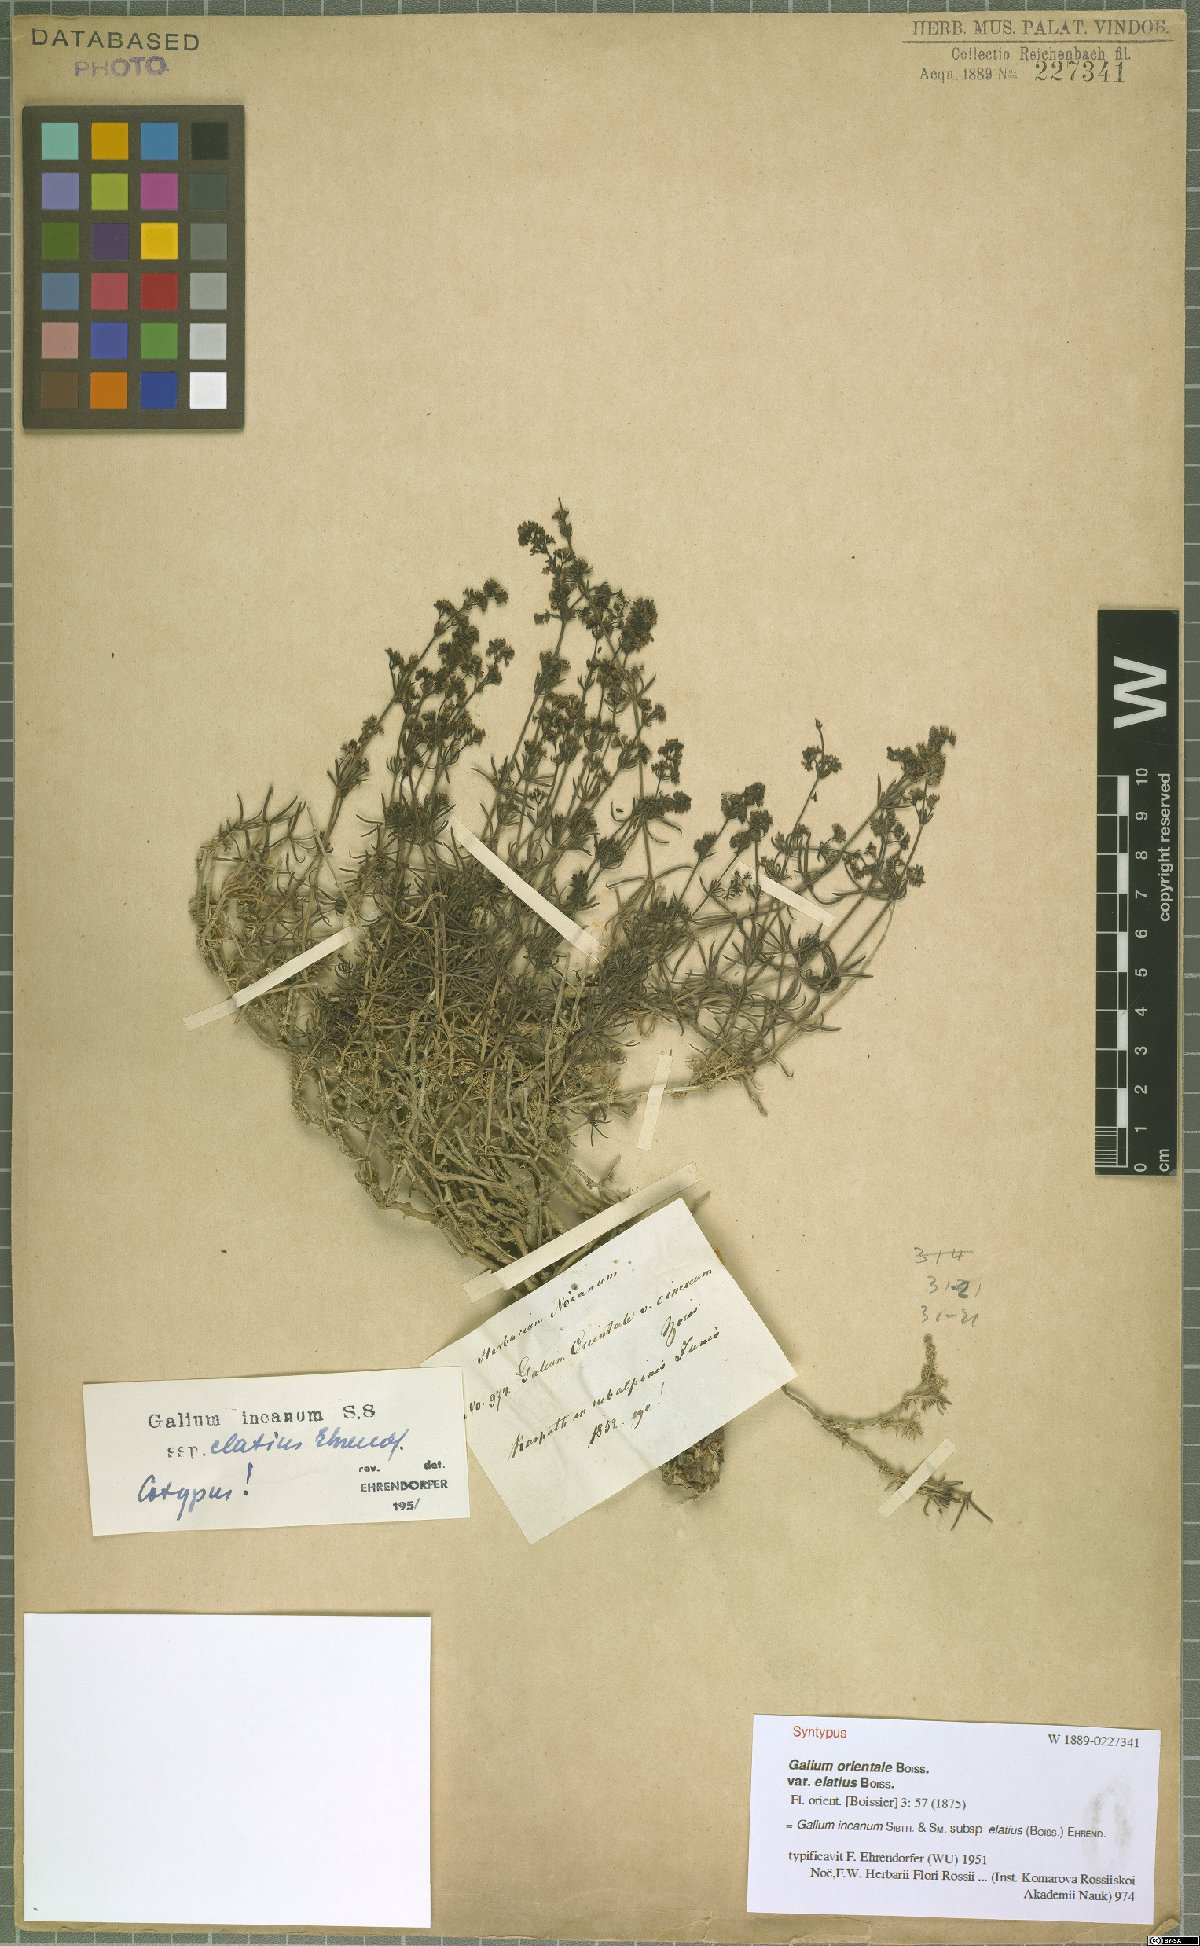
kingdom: Plantae
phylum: Tracheophyta
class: Magnoliopsida
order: Gentianales
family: Rubiaceae
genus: Galium
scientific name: Galium incanum
